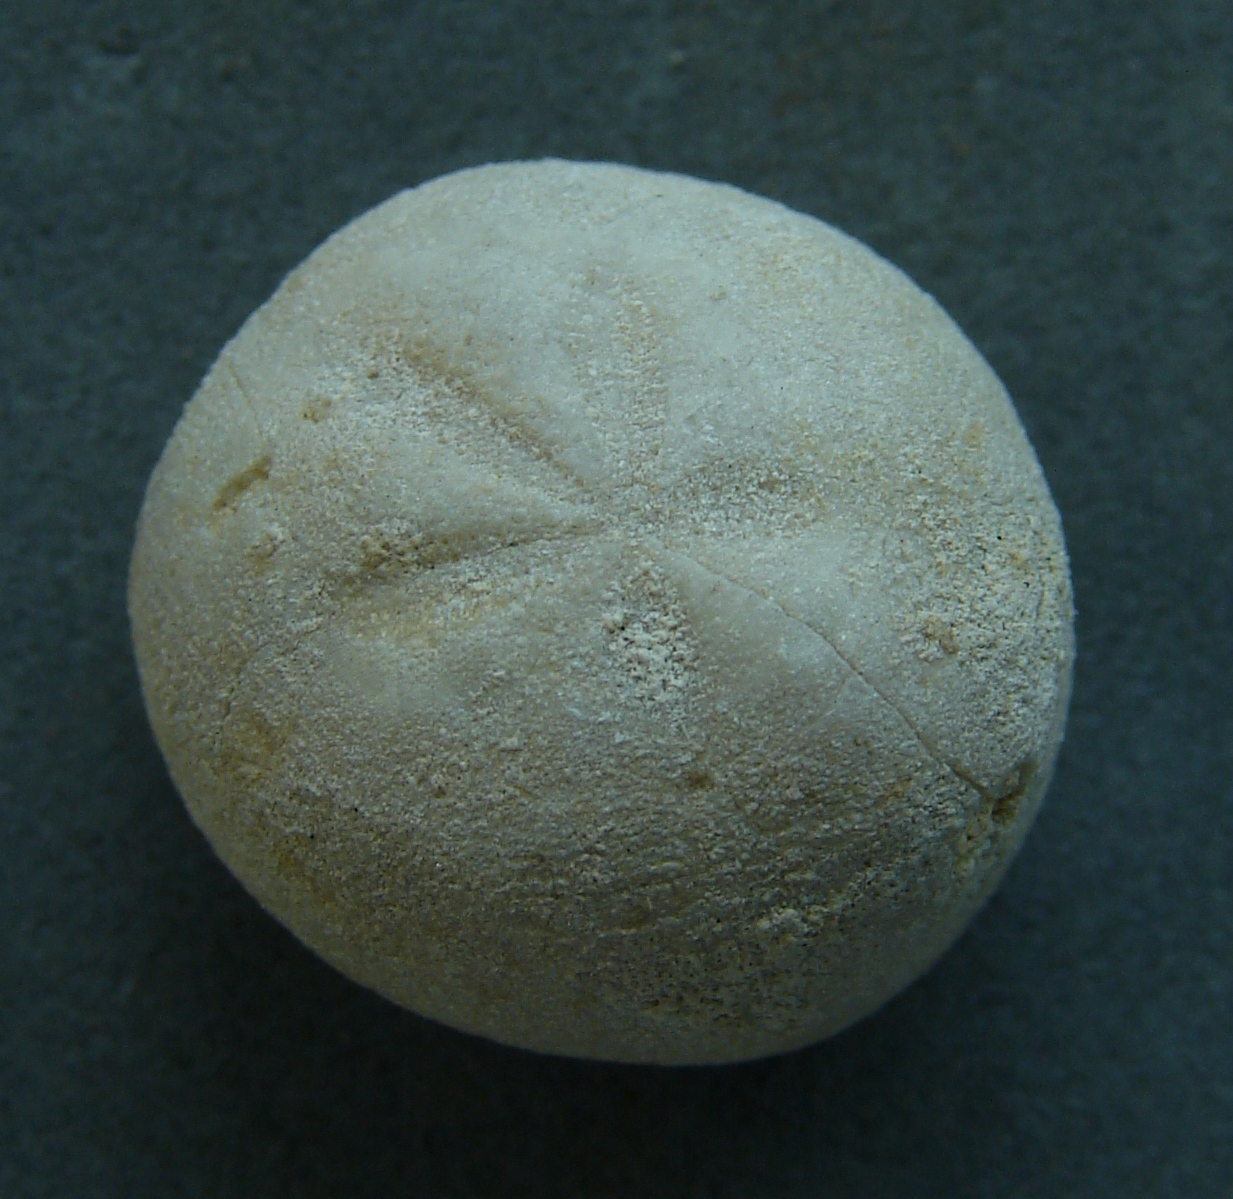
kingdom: Animalia
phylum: Echinodermata
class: Echinoidea
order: Spatangoida
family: Hemiasteridae
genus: Hemiaster
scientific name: Hemiaster
